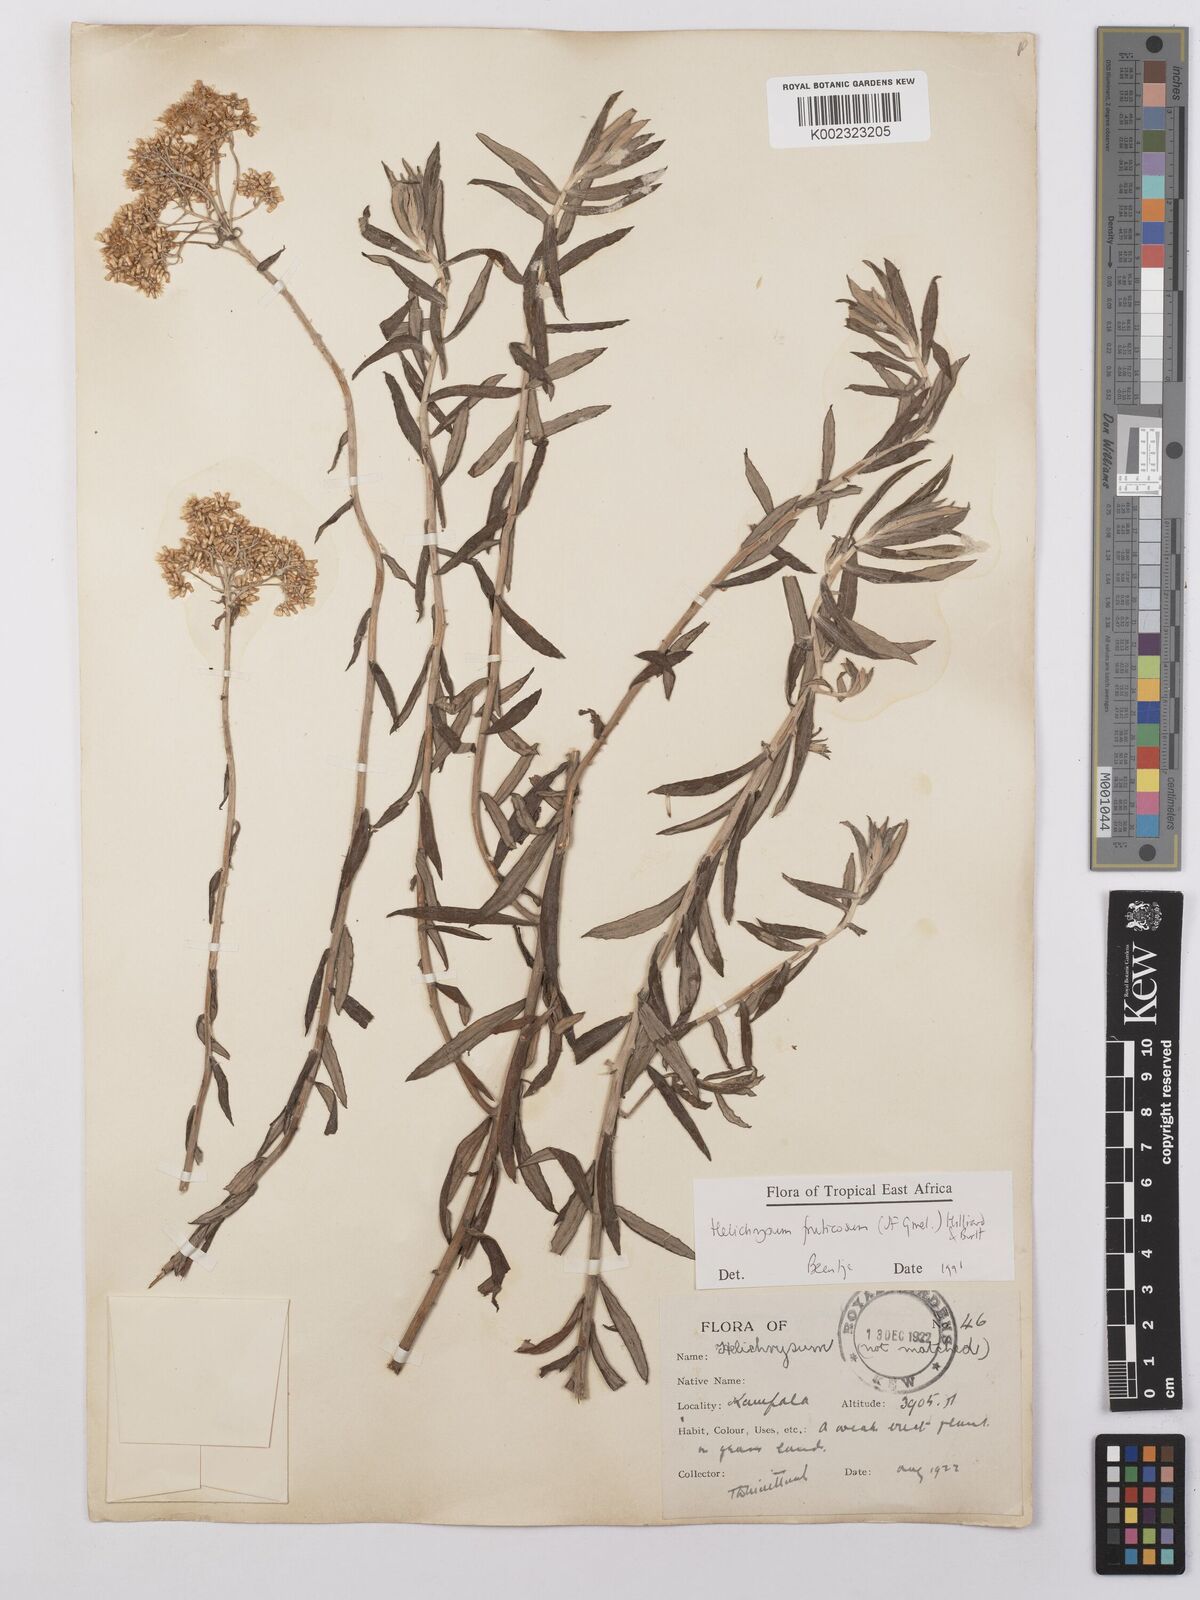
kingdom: Plantae
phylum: Tracheophyta
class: Magnoliopsida
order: Asterales
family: Asteraceae
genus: Helichrysum
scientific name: Helichrysum forskahlii
